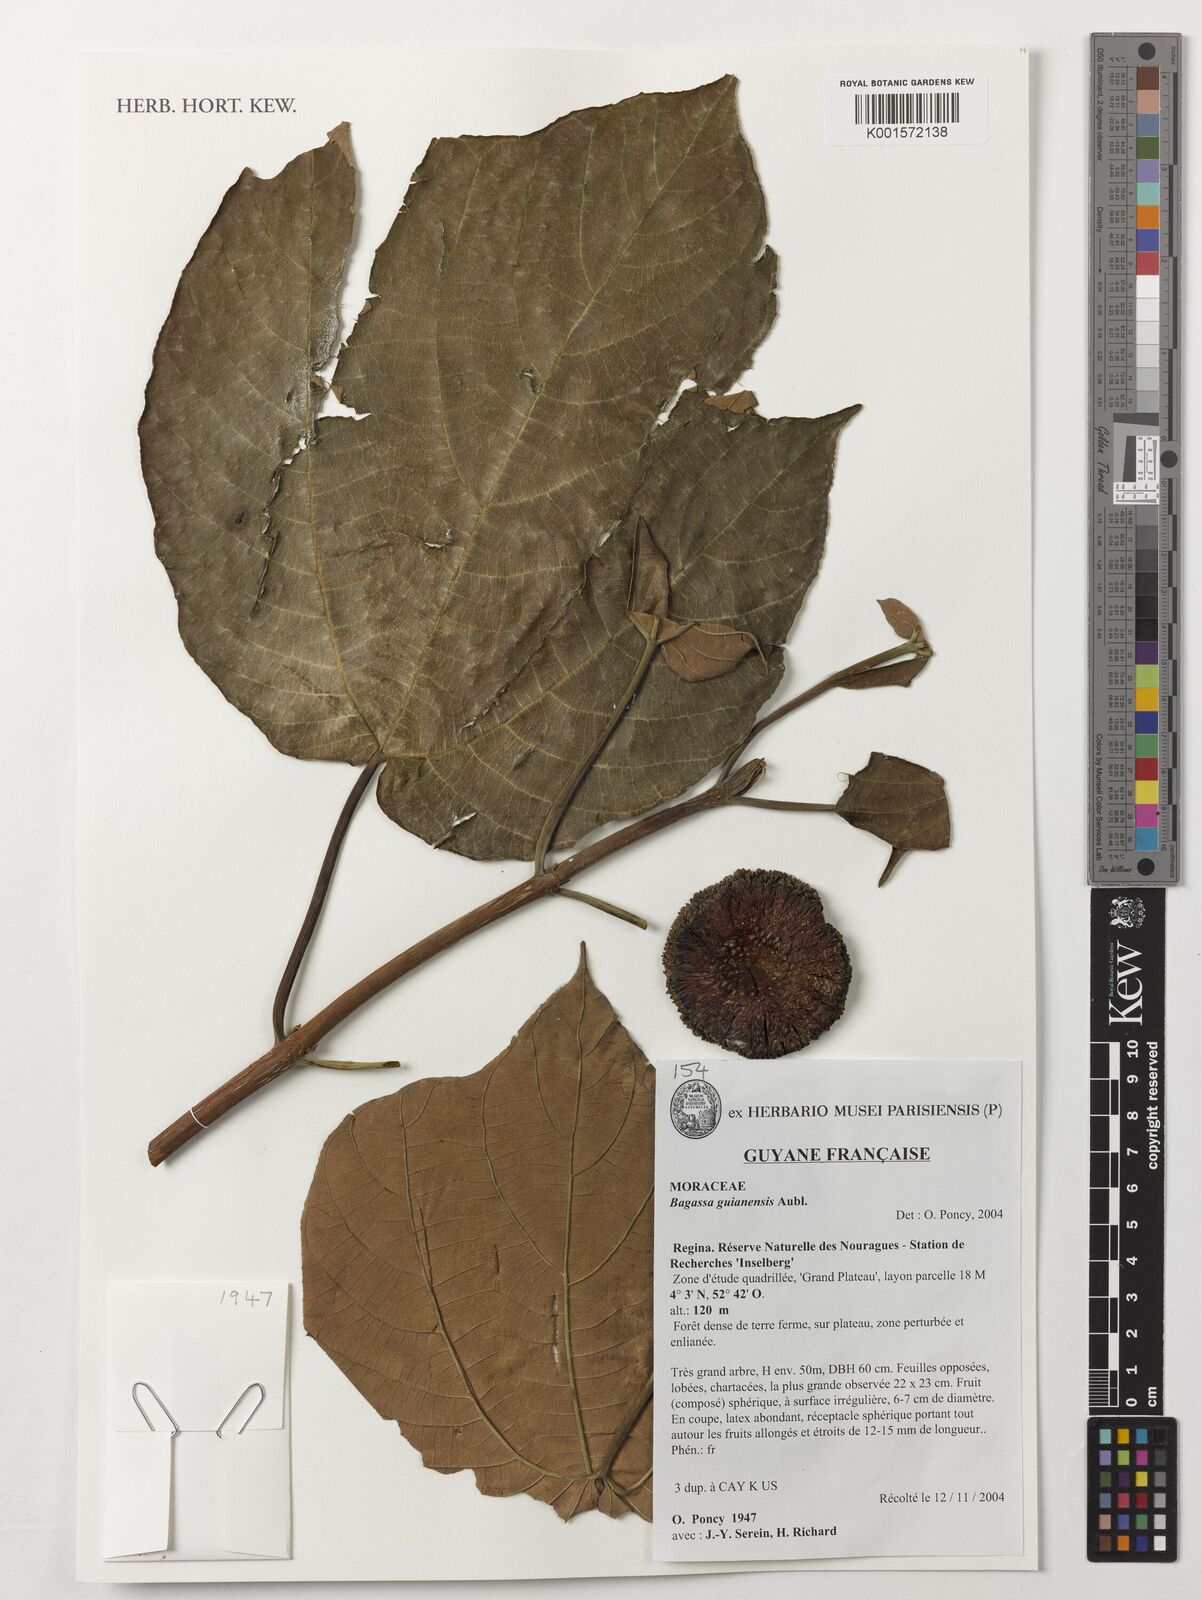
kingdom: Plantae
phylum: Tracheophyta
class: Magnoliopsida
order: Rosales
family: Moraceae
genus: Bagassa
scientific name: Bagassa guianensis
